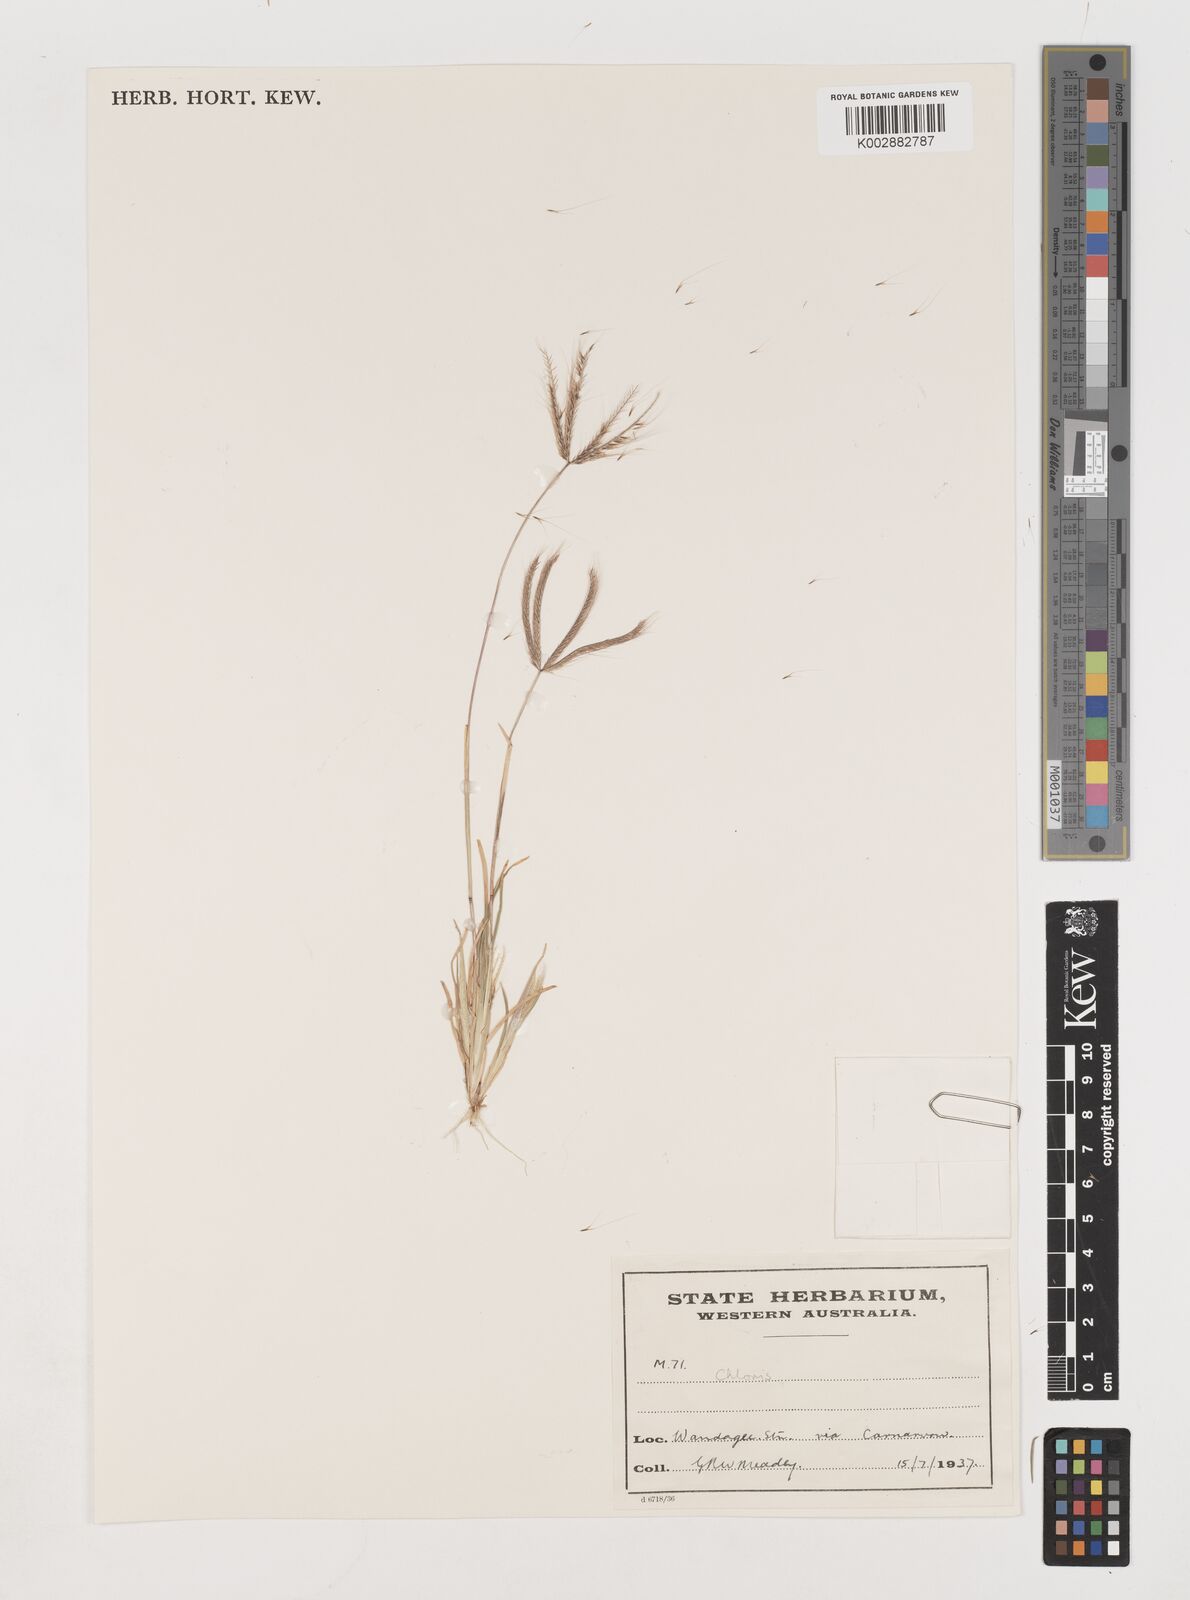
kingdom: Plantae
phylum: Tracheophyta
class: Liliopsida
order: Poales
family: Poaceae
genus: Chloris
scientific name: Chloris pectinata
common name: Comb windmill grass
